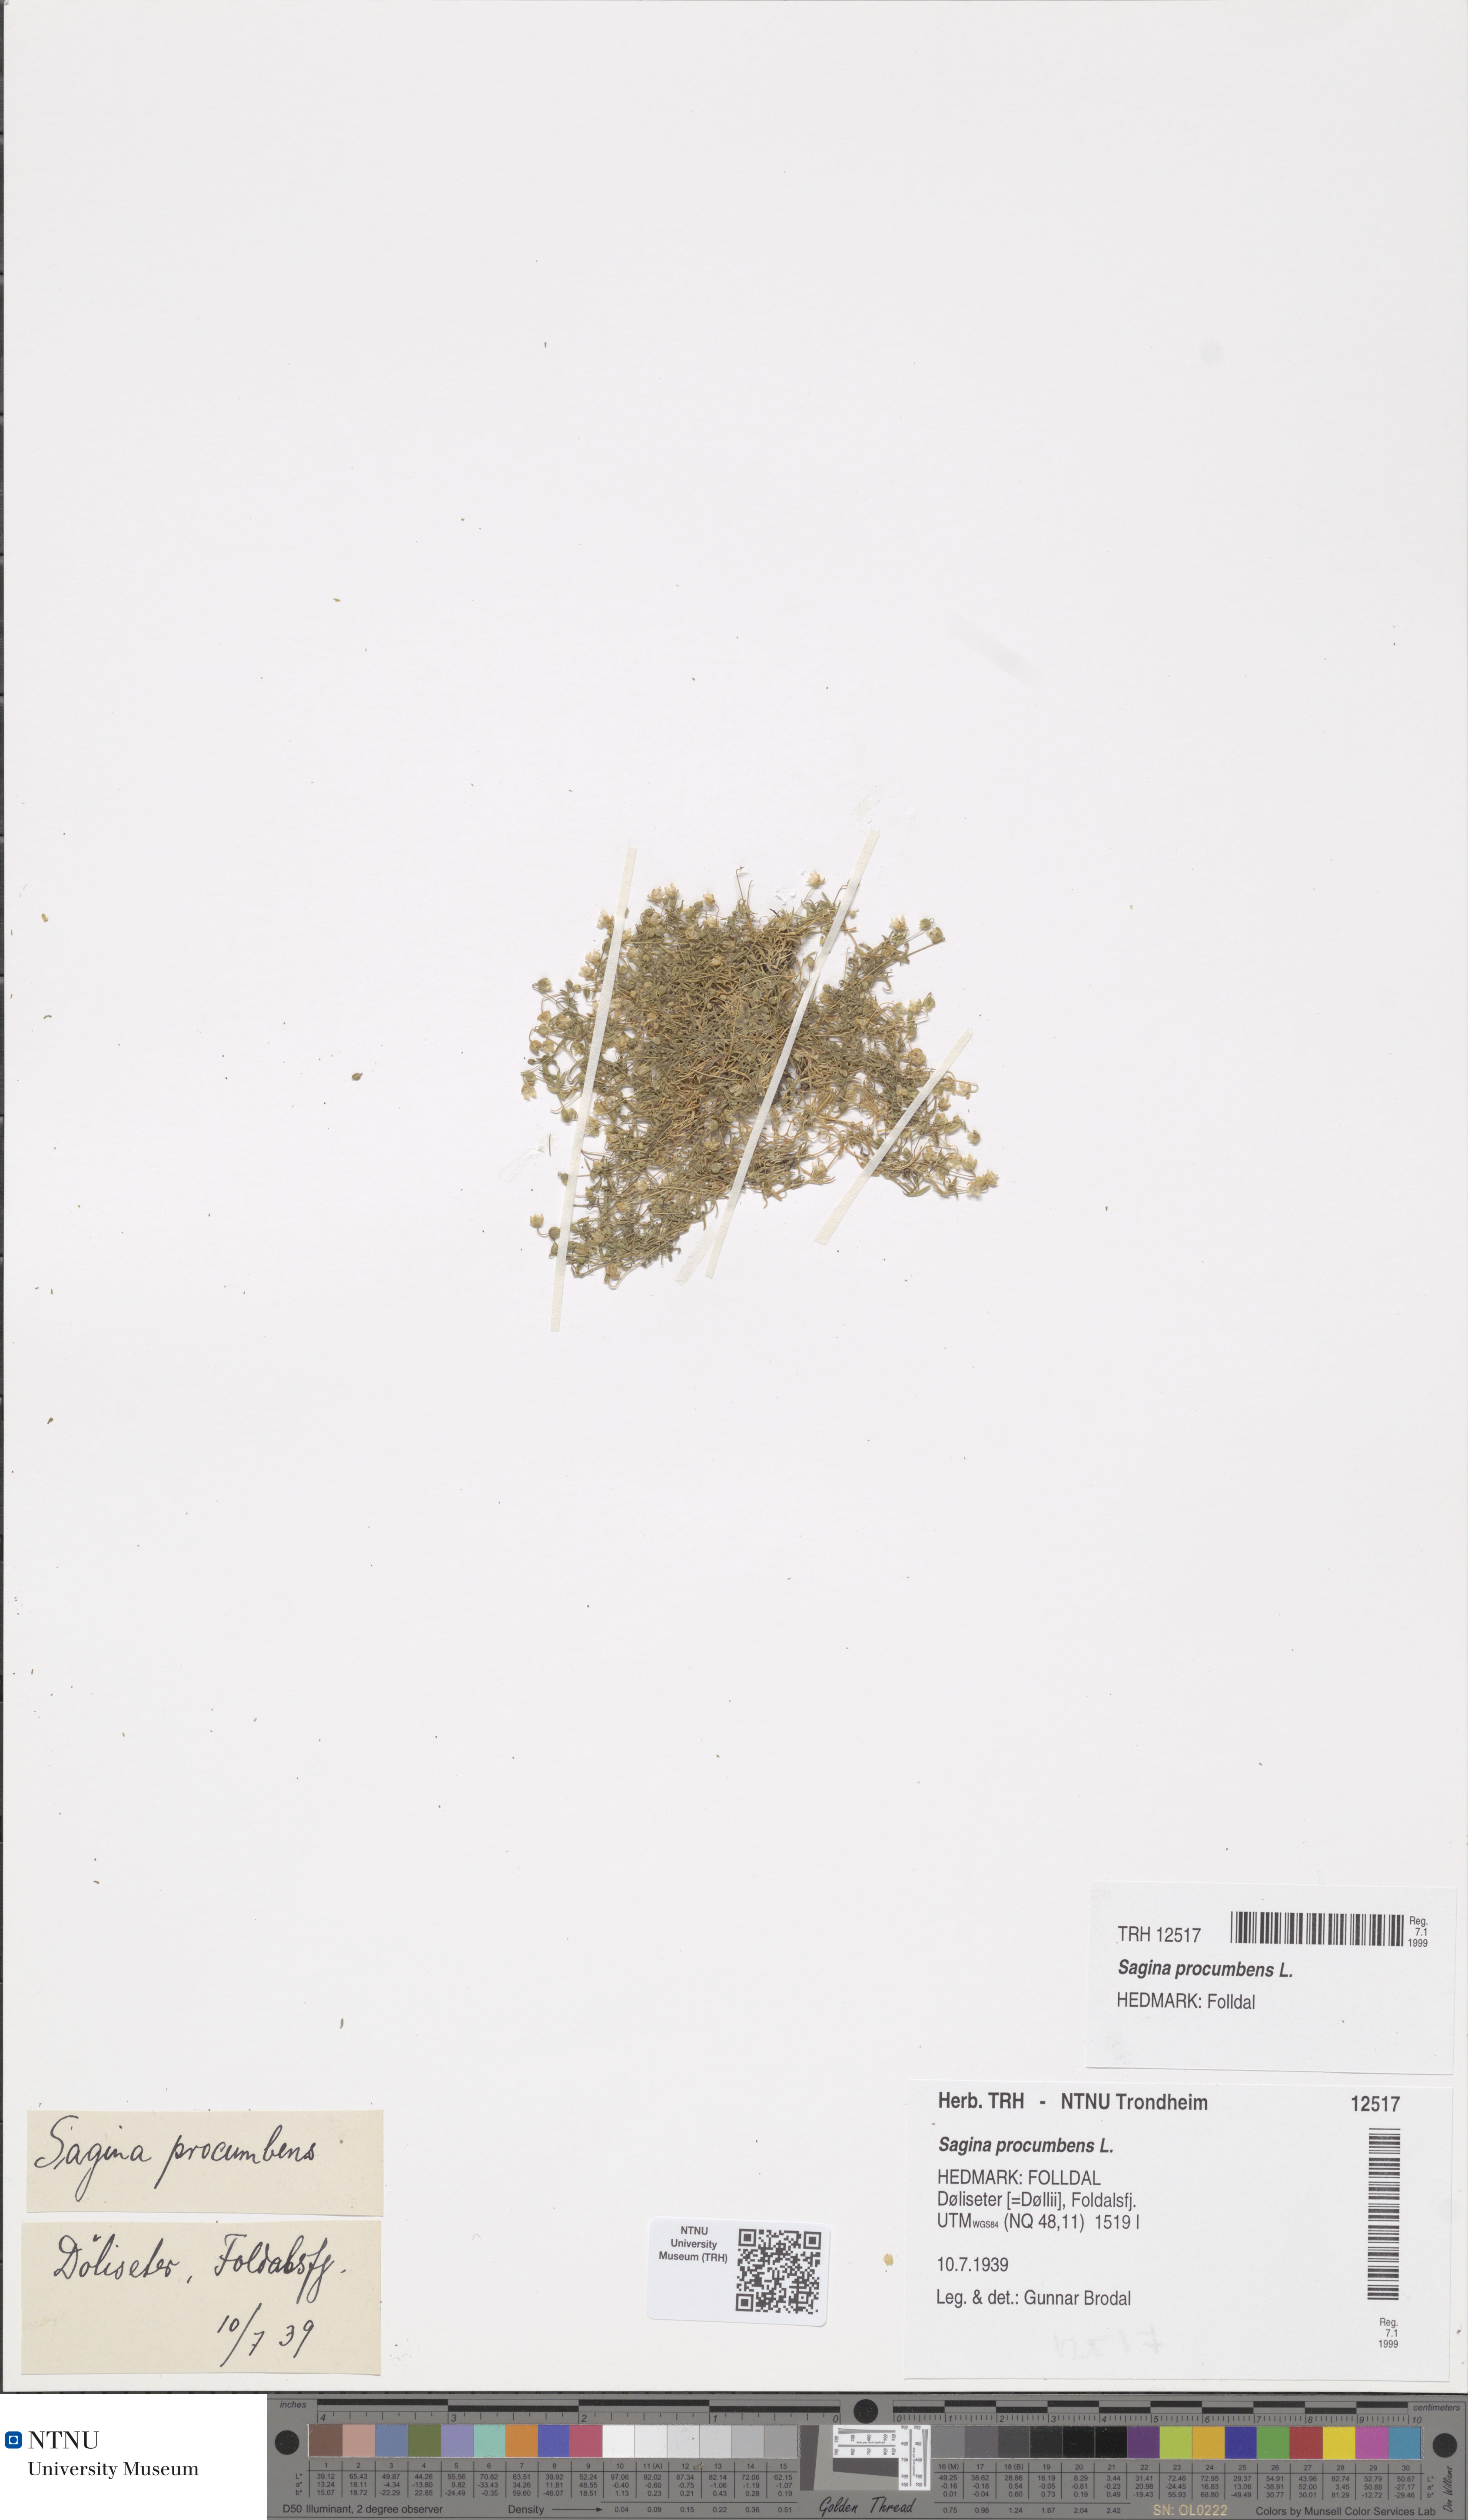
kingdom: Plantae
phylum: Tracheophyta
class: Magnoliopsida
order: Caryophyllales
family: Caryophyllaceae
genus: Sagina
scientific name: Sagina procumbens
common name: Procumbent pearlwort
